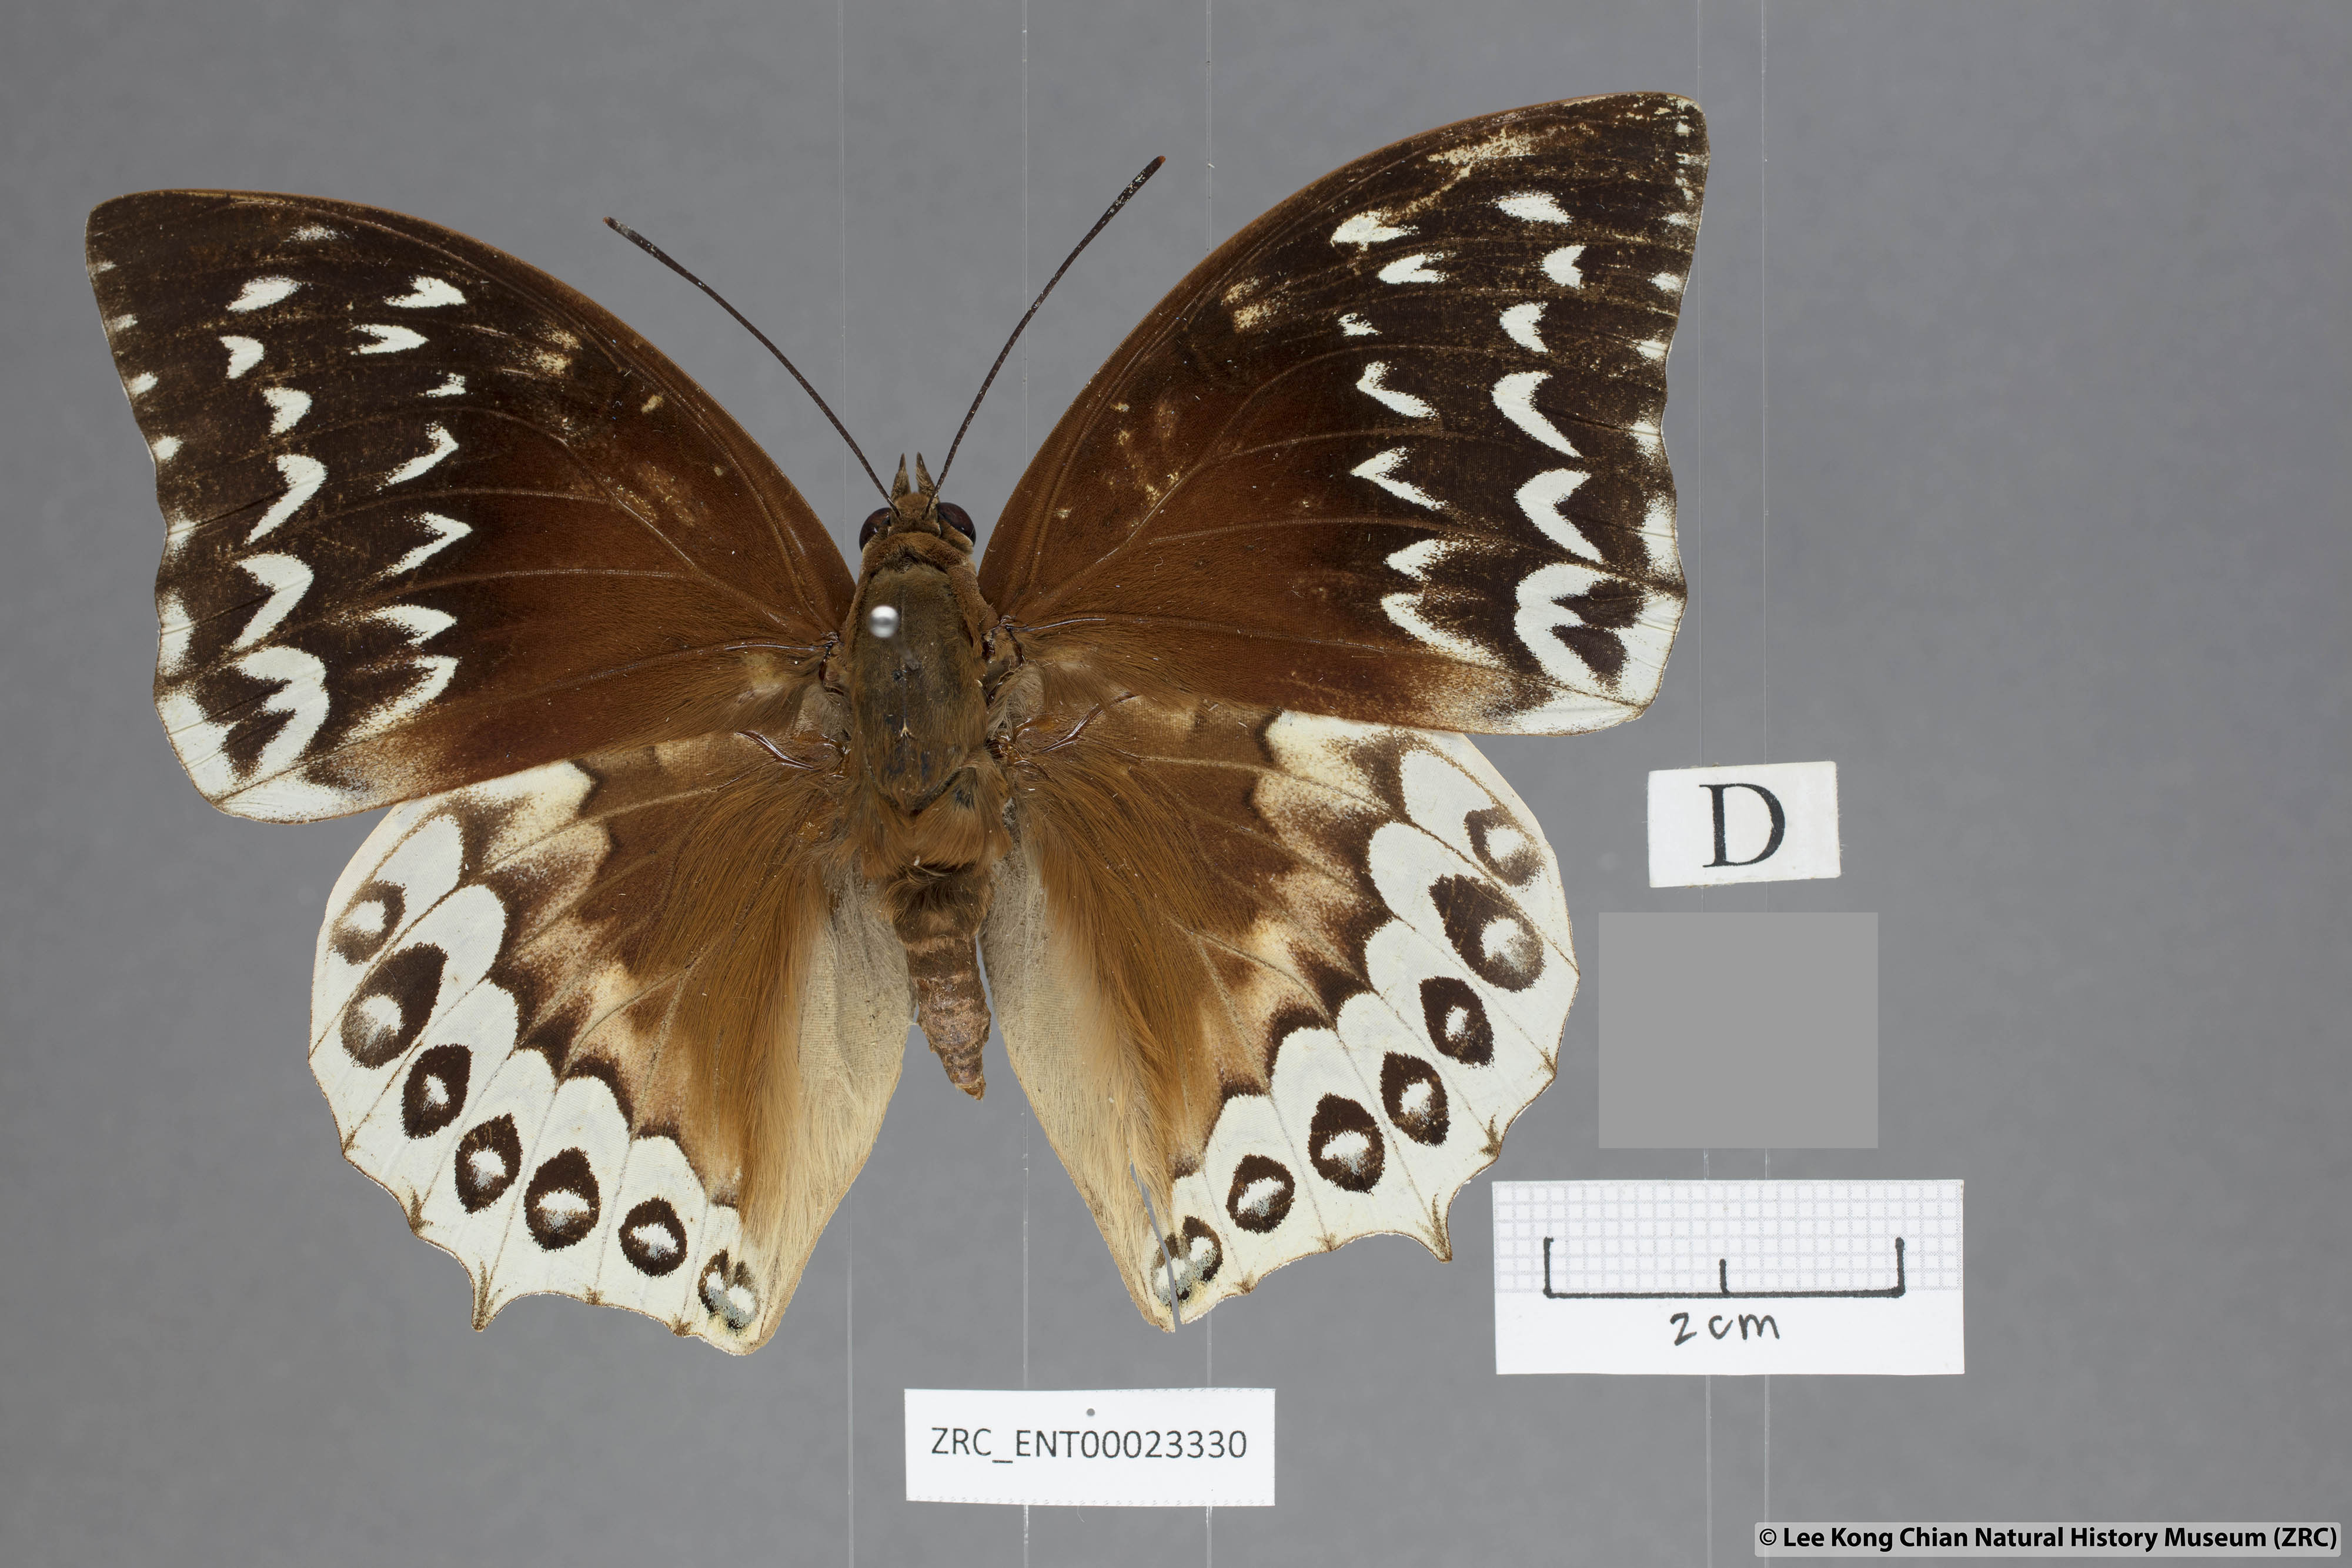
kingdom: Animalia
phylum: Arthropoda
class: Insecta
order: Lepidoptera
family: Nymphalidae
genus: Charaxes
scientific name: Charaxes durnfordi
